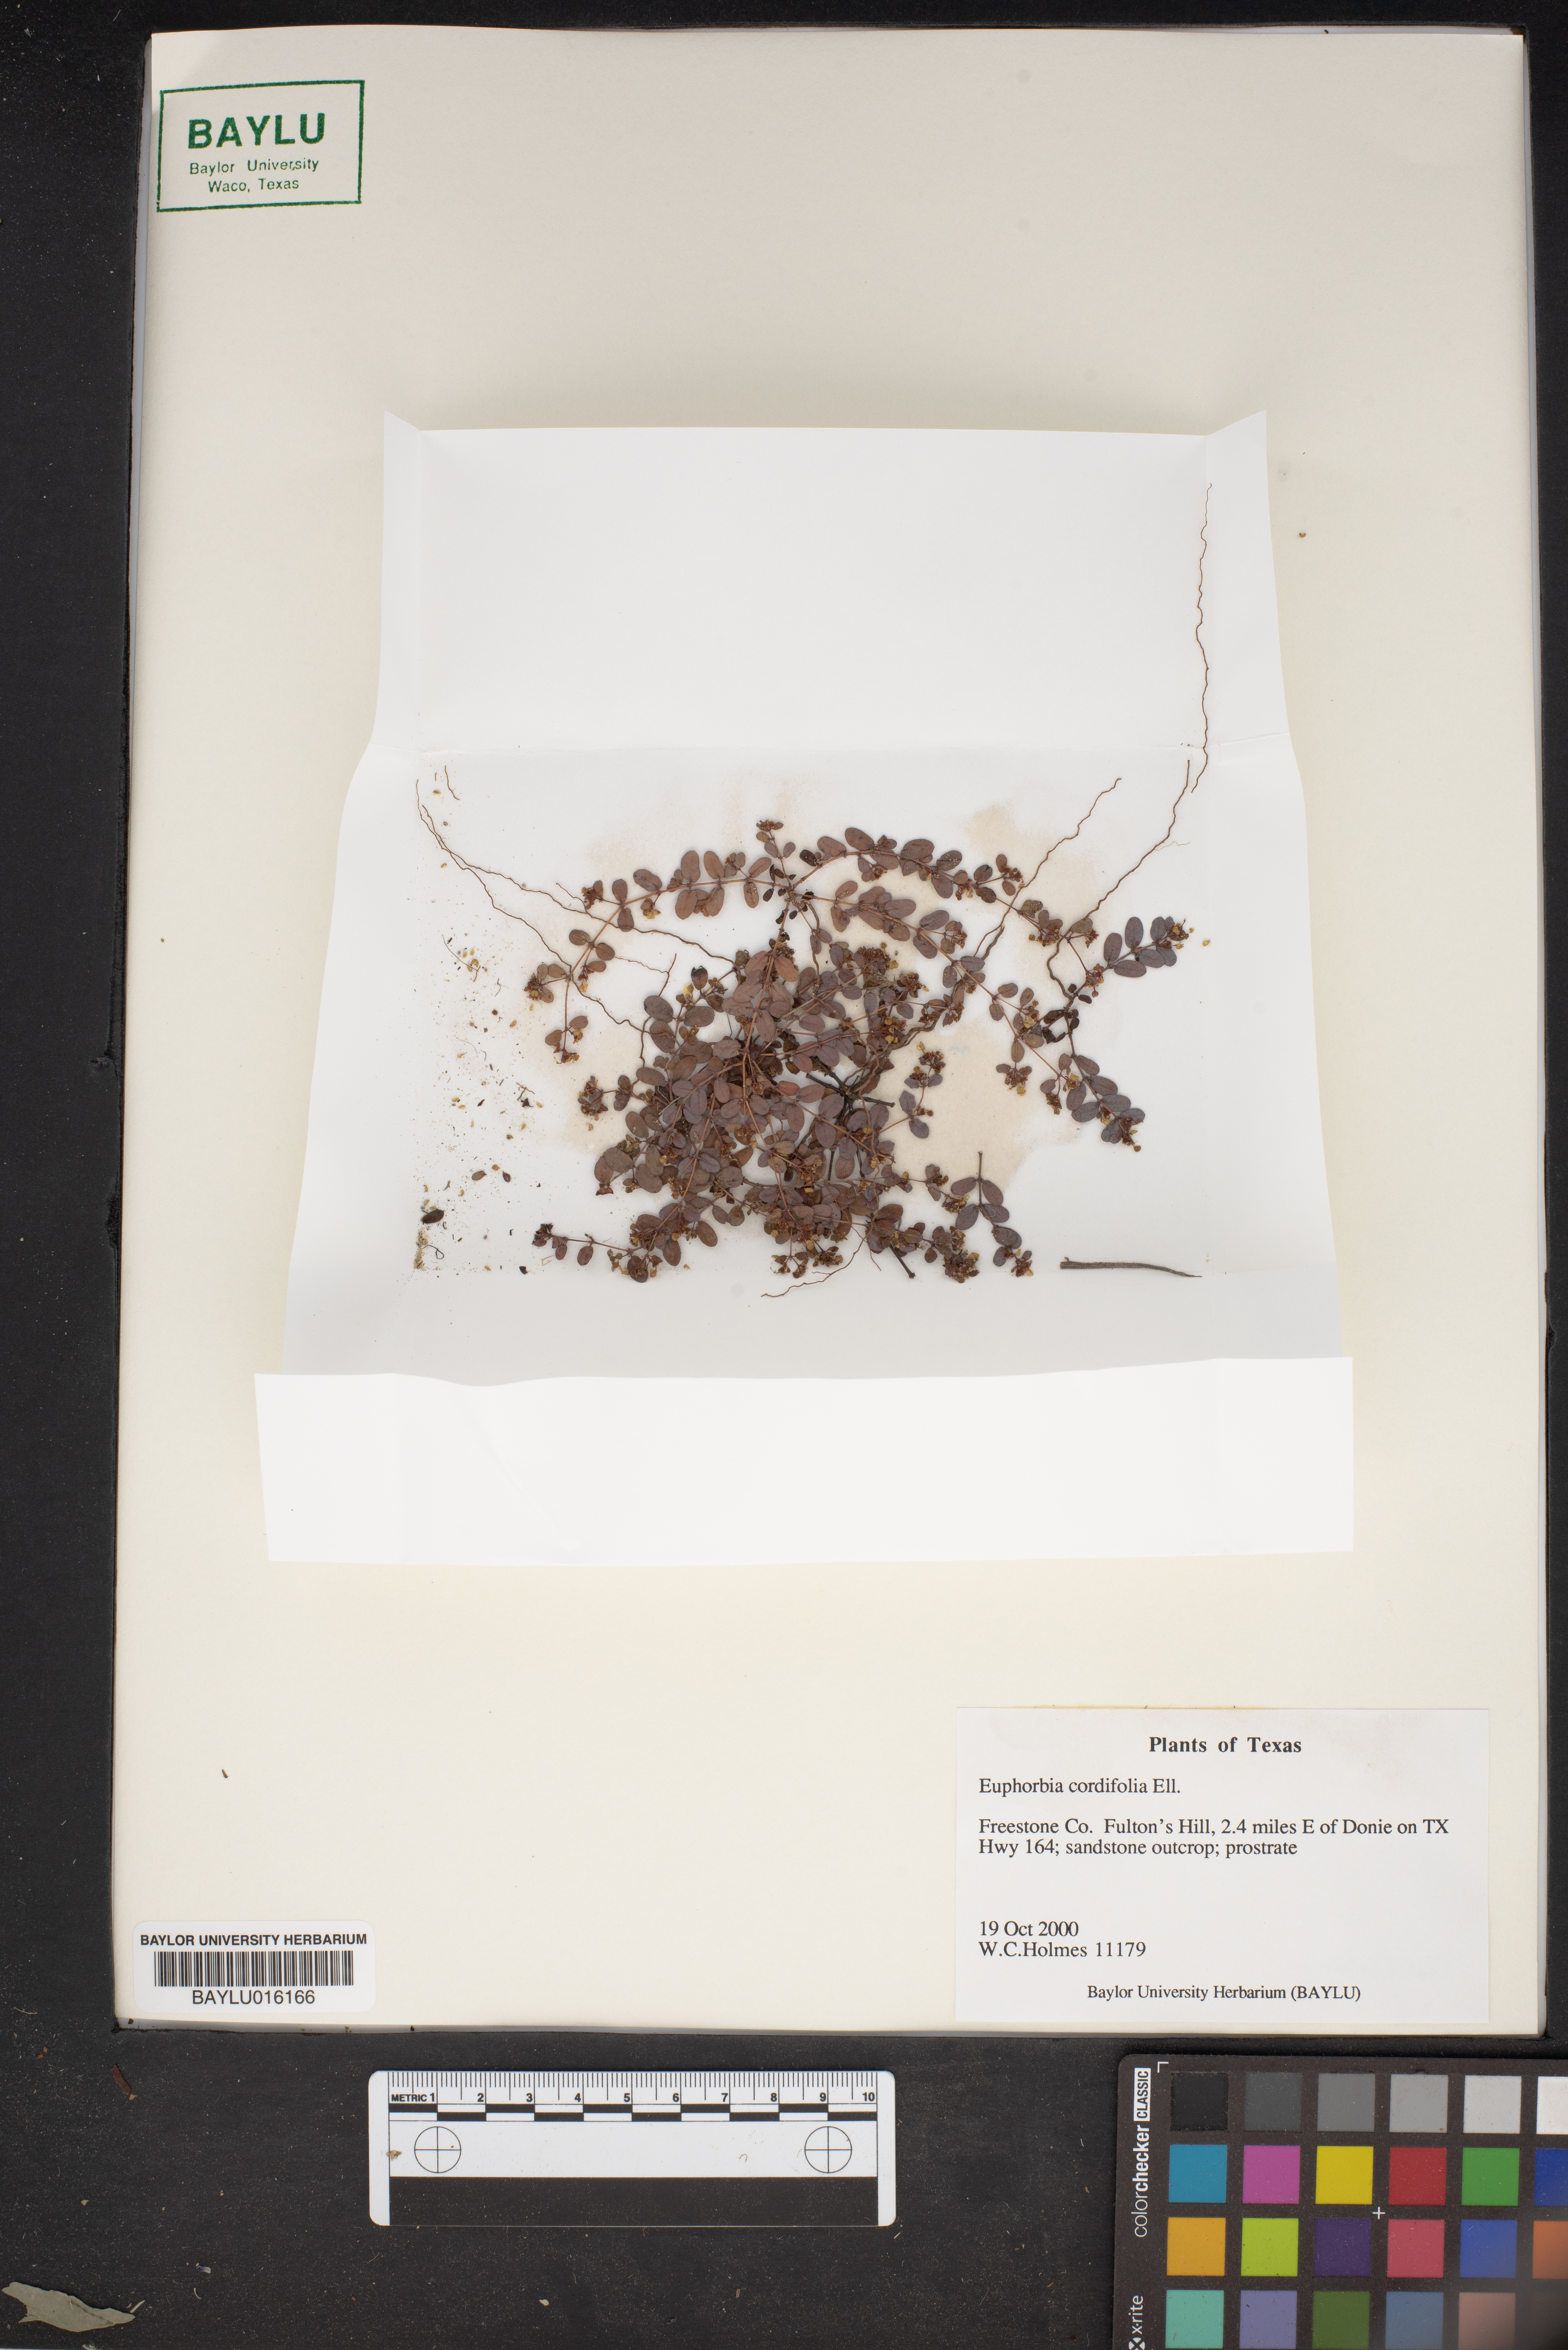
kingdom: Plantae
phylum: Tracheophyta
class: Magnoliopsida
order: Malpighiales
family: Euphorbiaceae
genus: Euphorbia
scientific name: Euphorbia cordifolia
